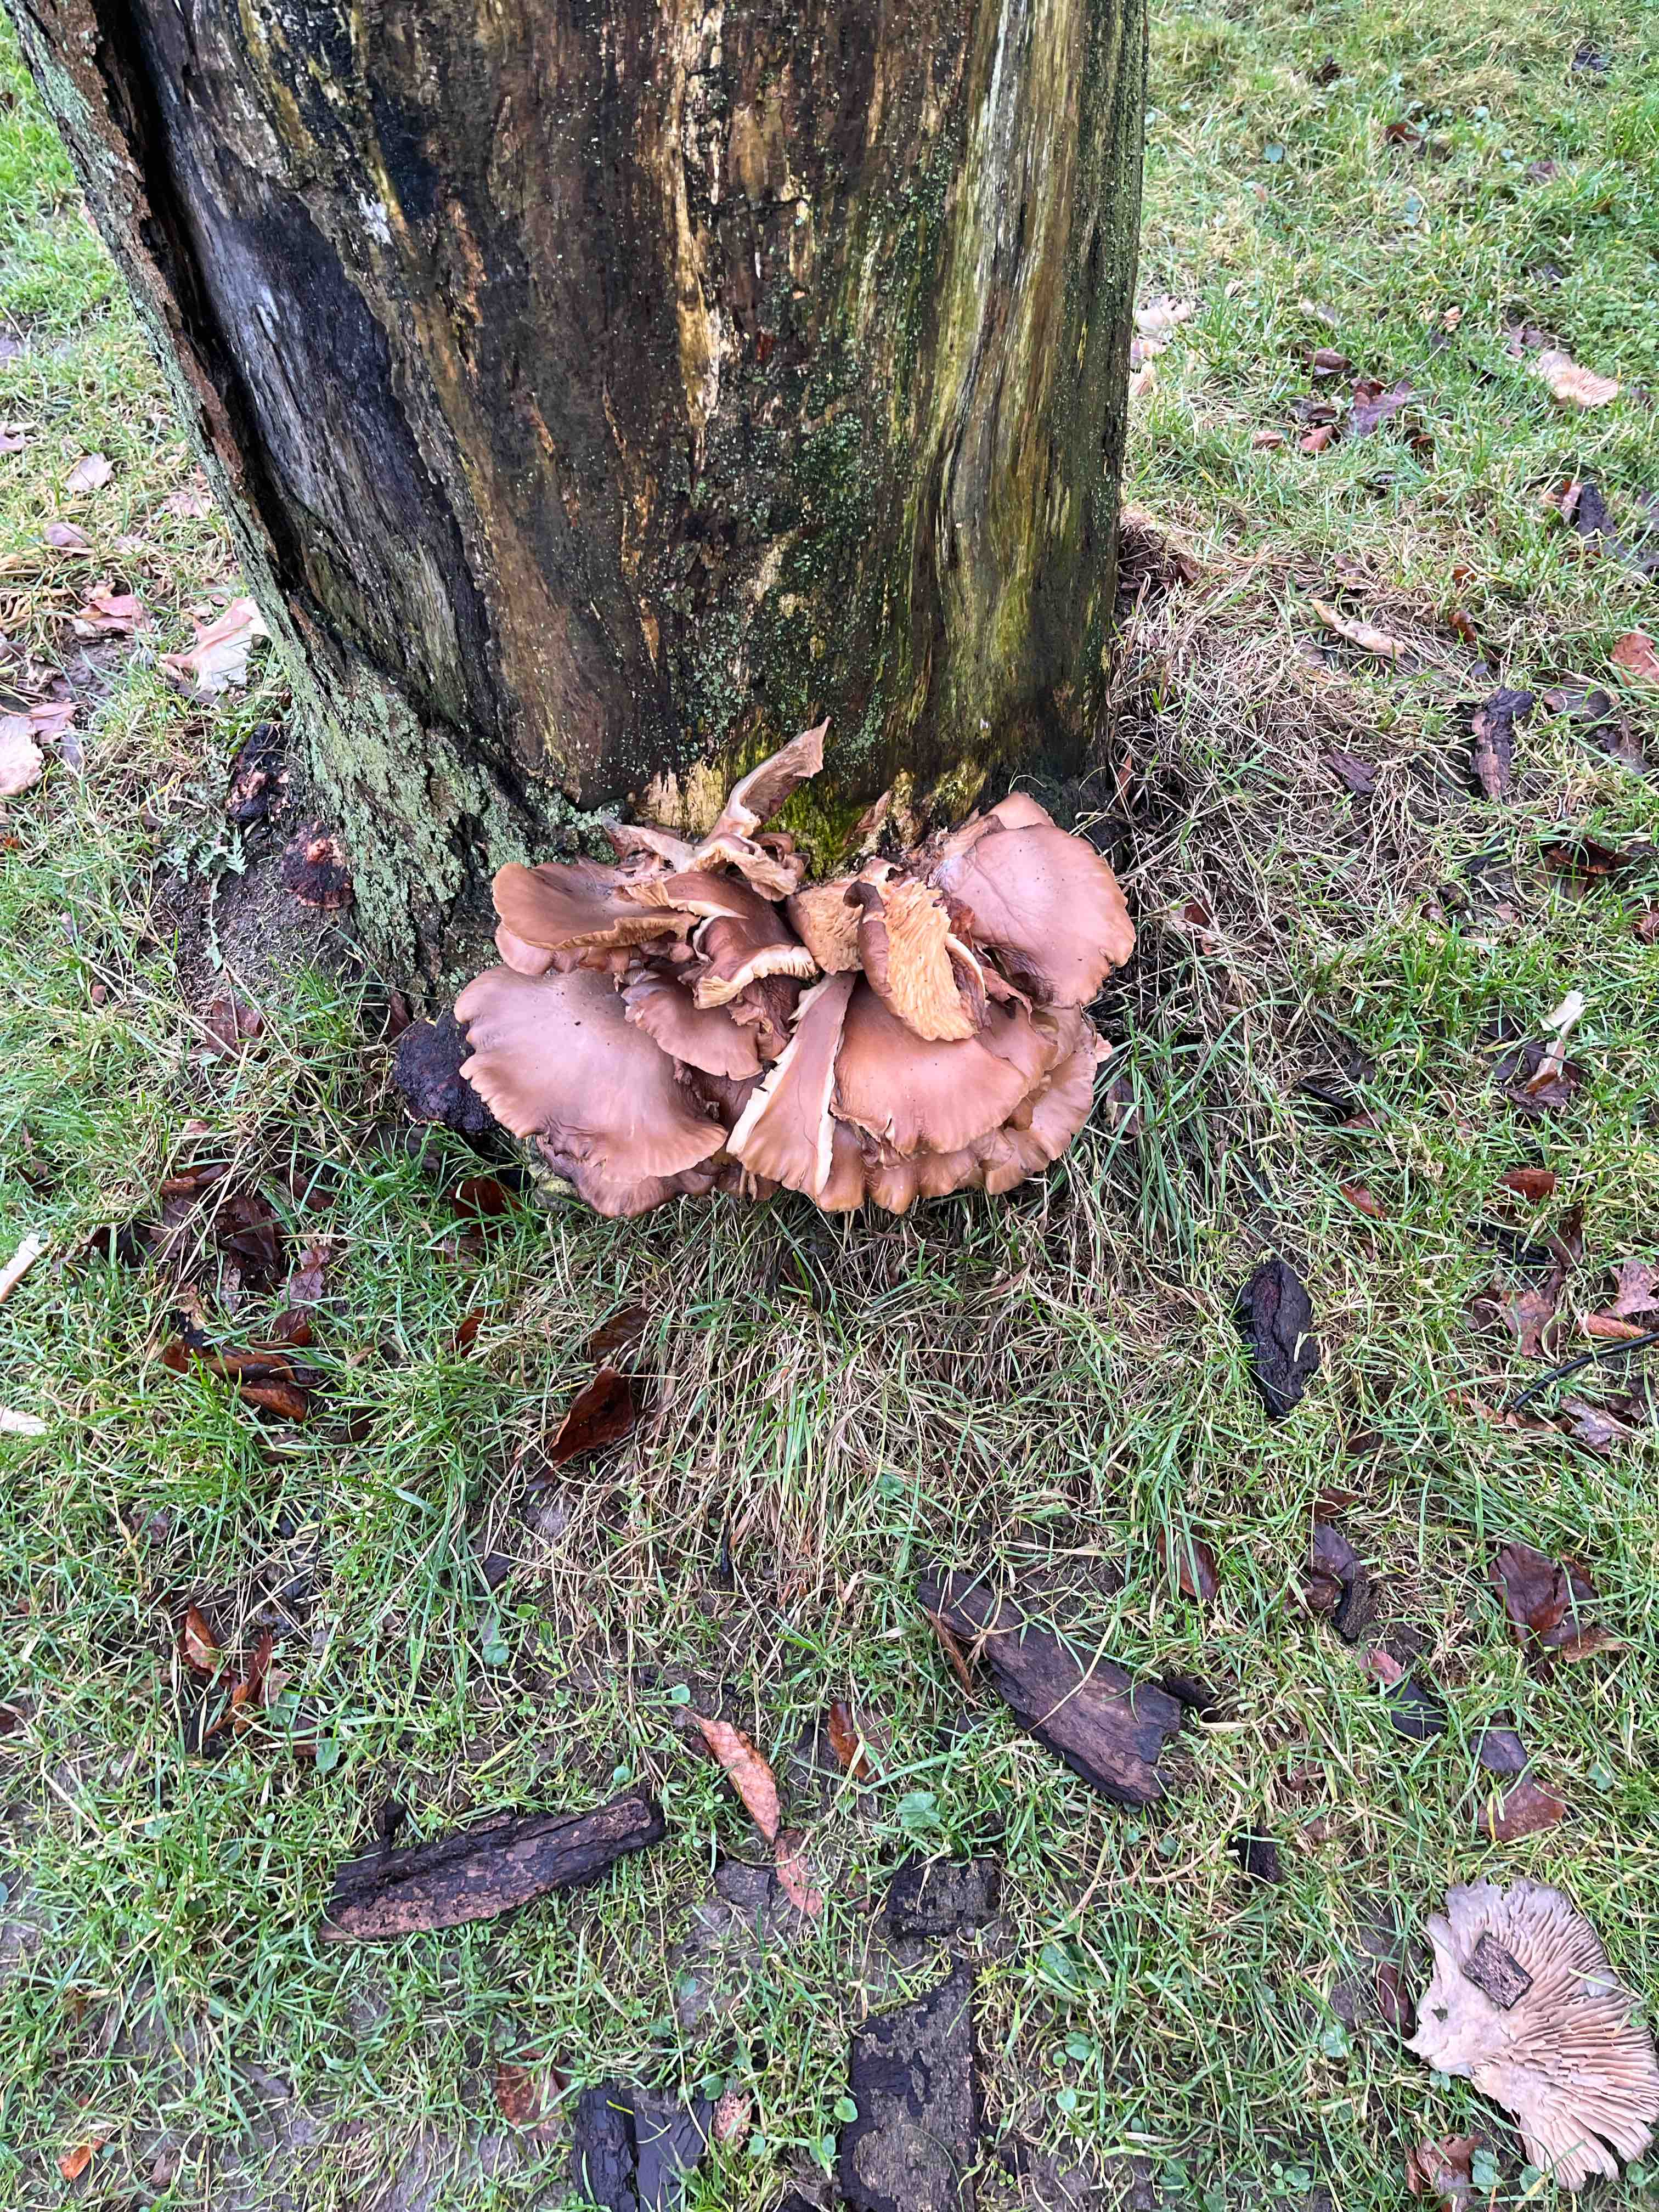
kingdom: Fungi
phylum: Basidiomycota
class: Agaricomycetes
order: Agaricales
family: Pleurotaceae
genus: Pleurotus
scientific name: Pleurotus ostreatus
